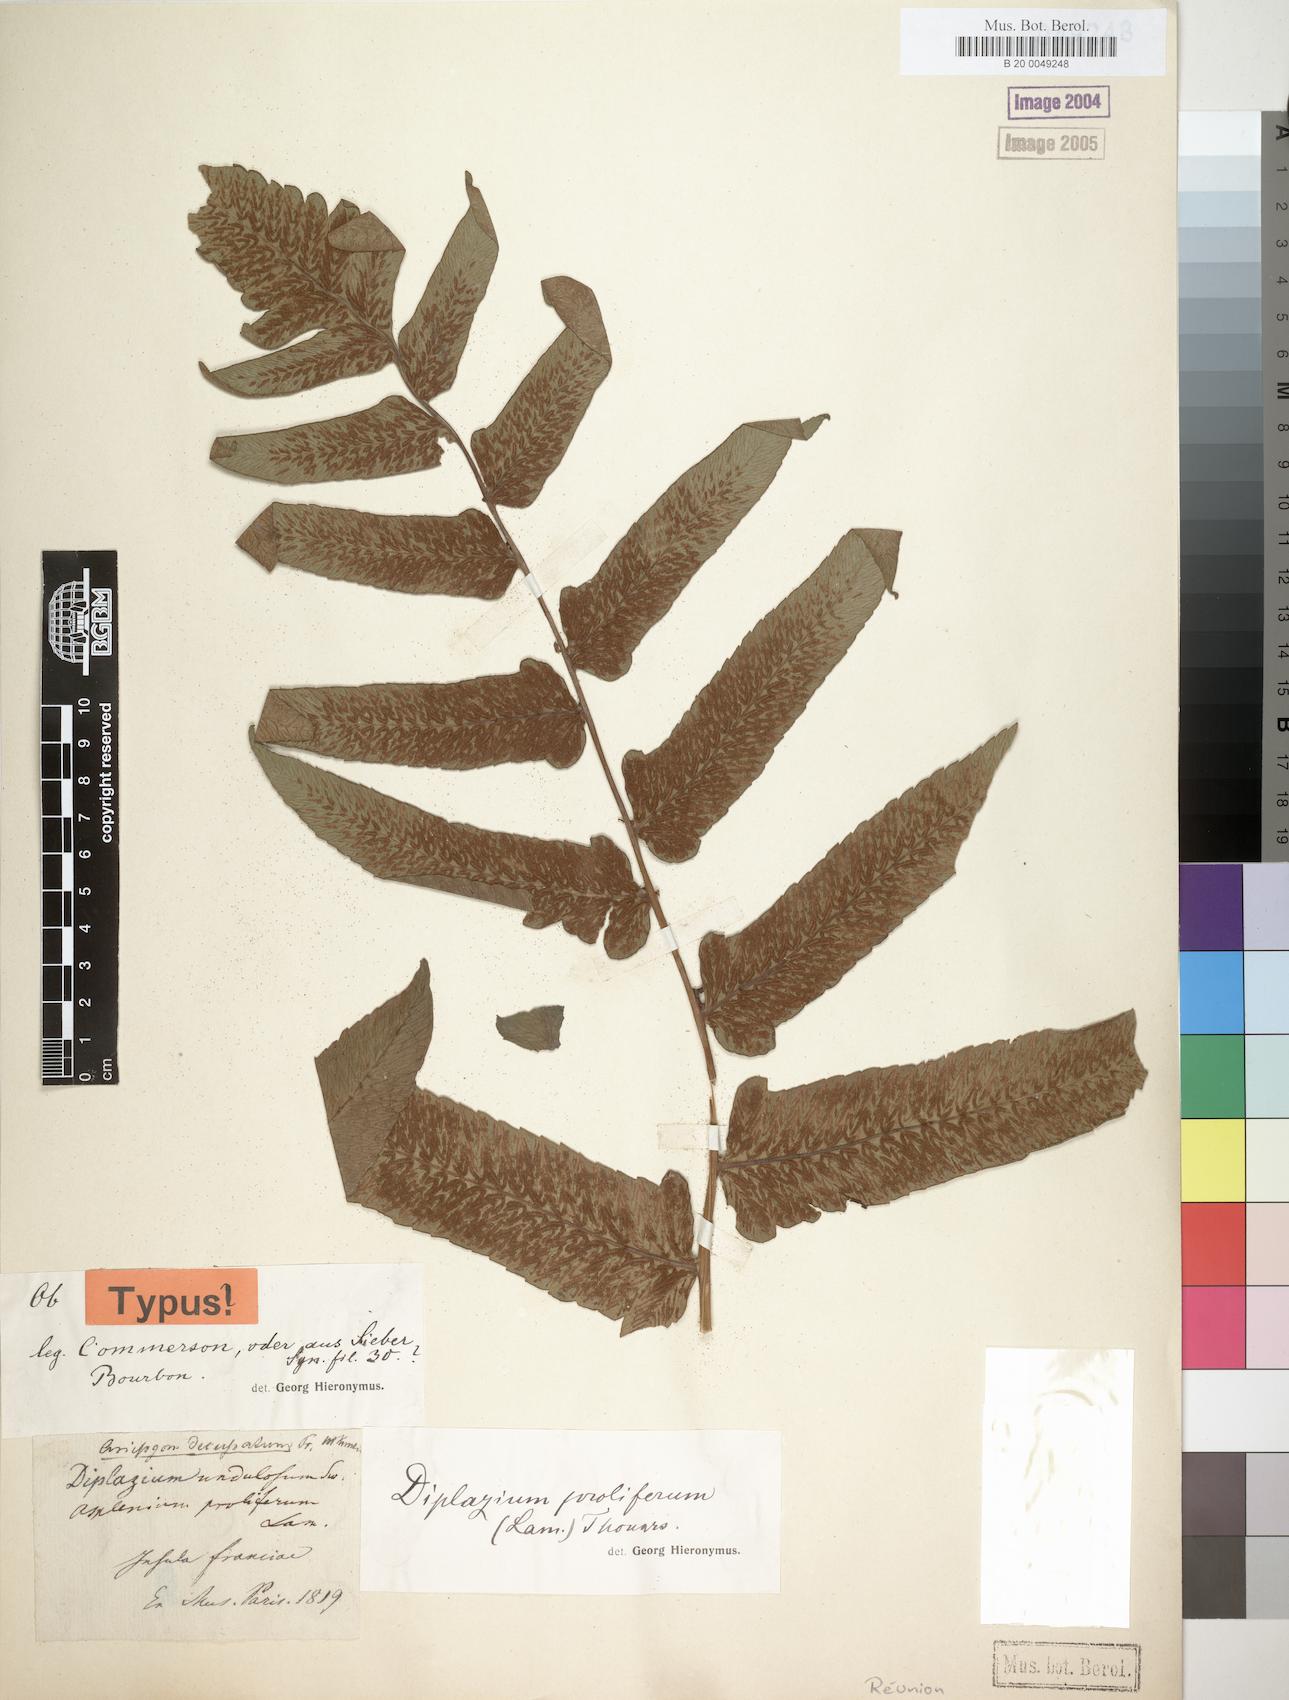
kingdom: Plantae
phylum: Tracheophyta
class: Polypodiopsida
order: Polypodiales
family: Athyriaceae
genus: Diplazium
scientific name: Diplazium proliferum
